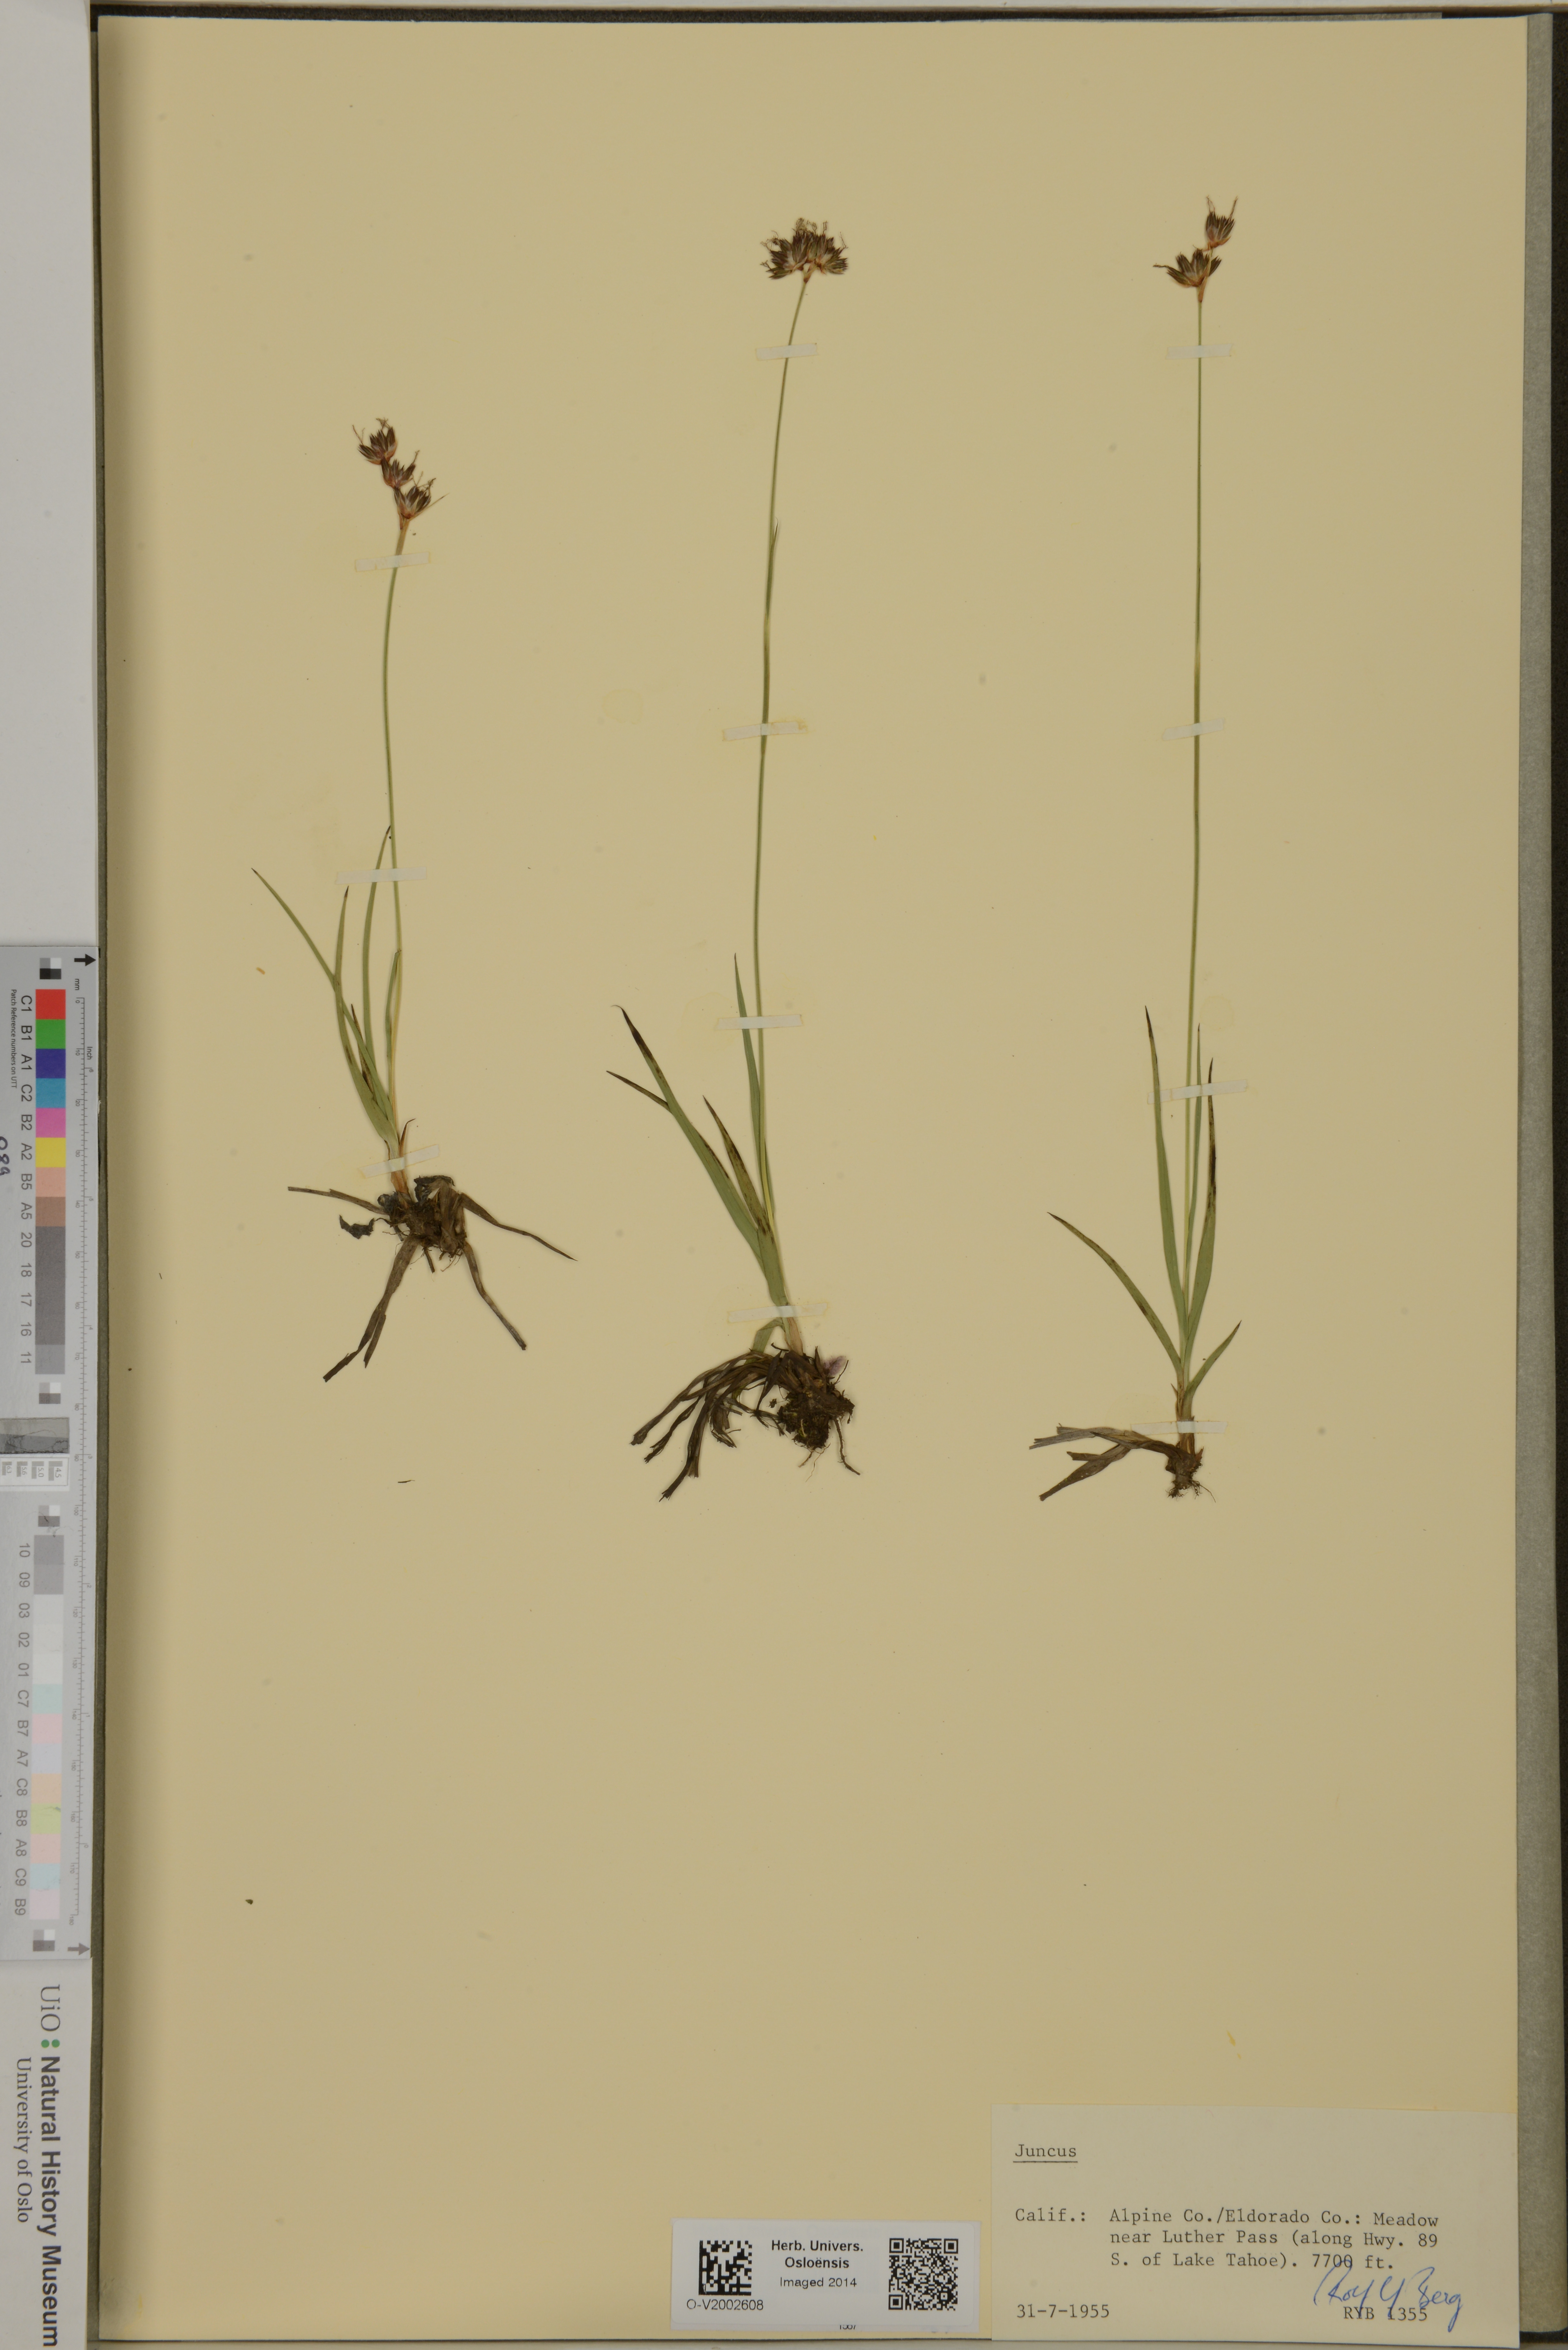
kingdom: Plantae
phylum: Tracheophyta
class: Liliopsida
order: Poales
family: Juncaceae
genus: Juncus
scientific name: Juncus
